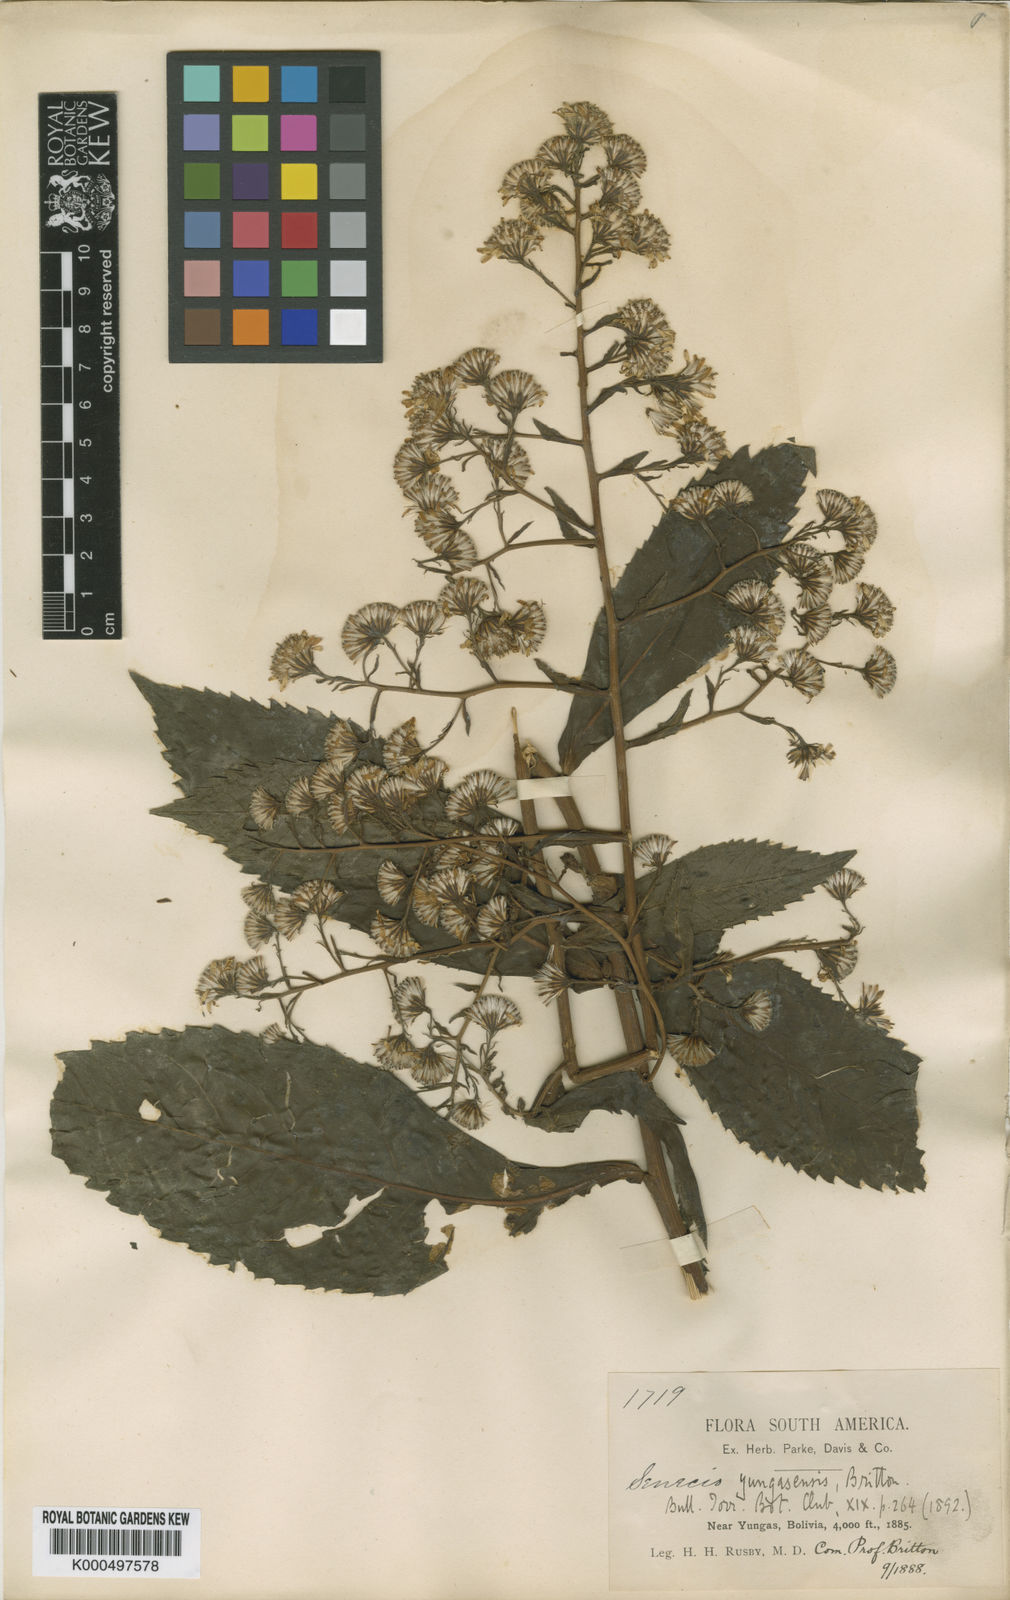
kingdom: Plantae
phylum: Tracheophyta
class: Magnoliopsida
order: Asterales
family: Asteraceae
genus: Dendrophorbium
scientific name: Dendrophorbium yungasense
